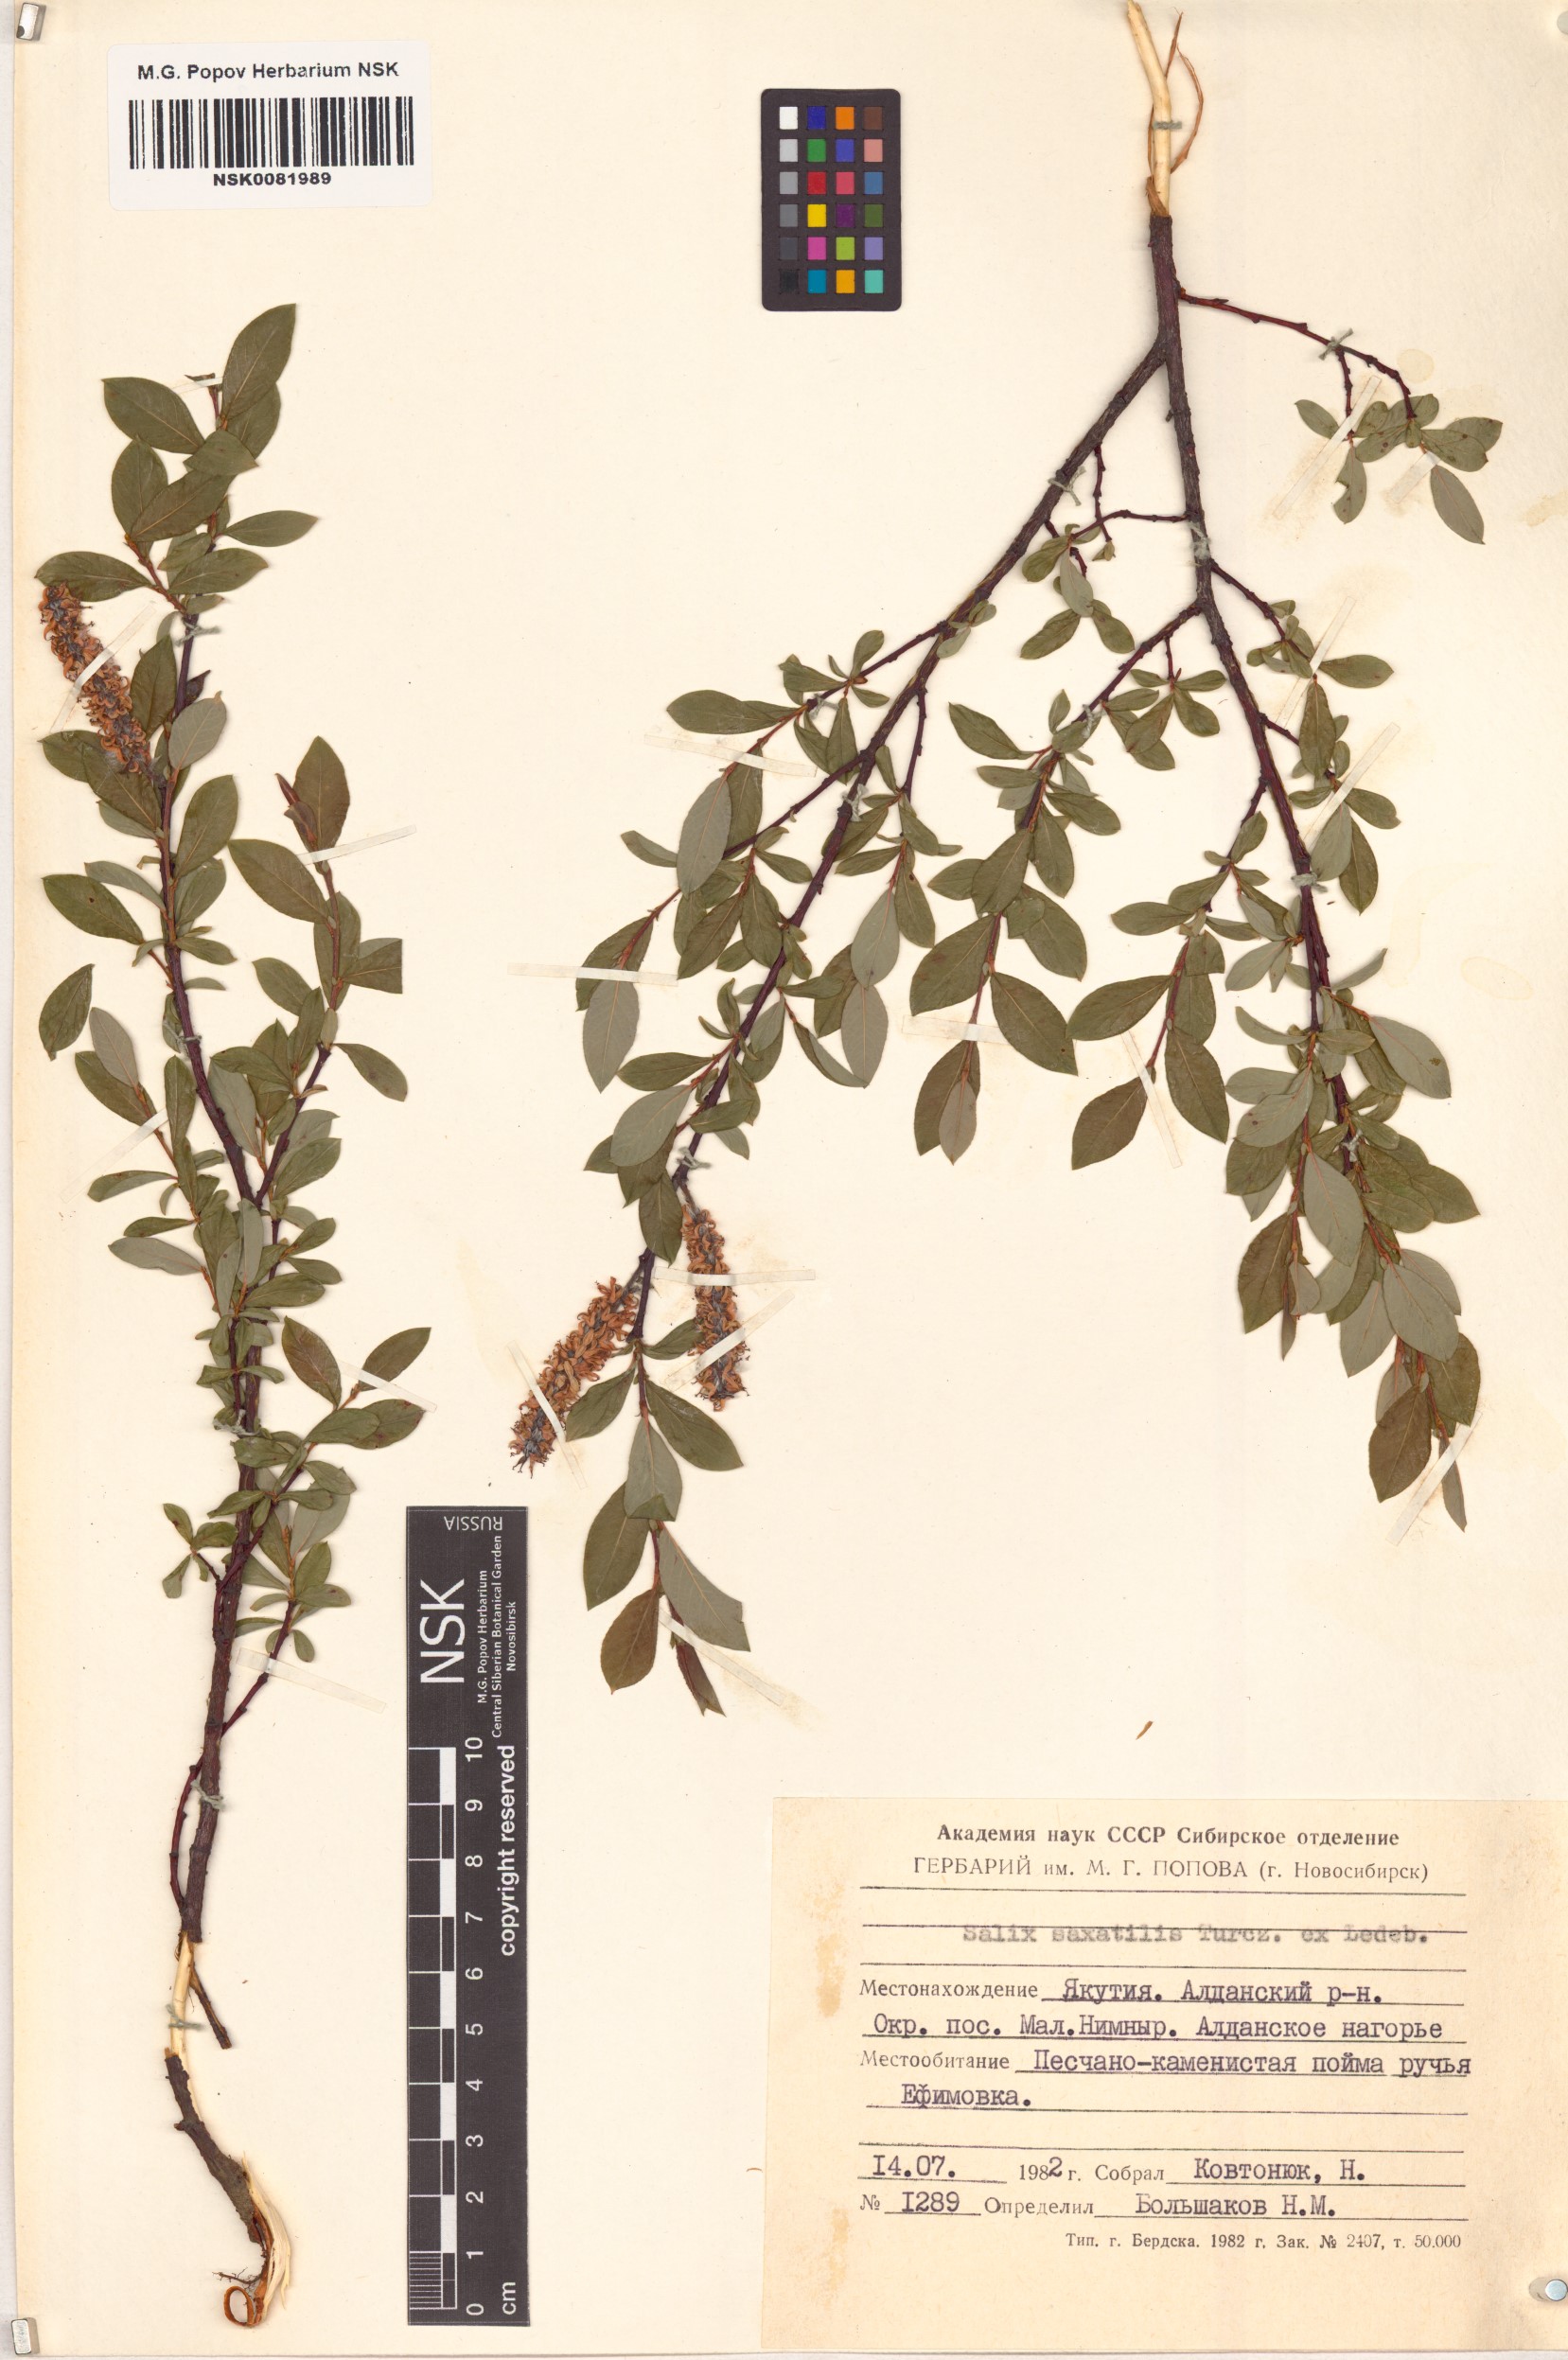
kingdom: Plantae
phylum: Tracheophyta
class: Magnoliopsida
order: Malpighiales
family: Salicaceae
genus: Salix
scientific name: Salix saxatilis
